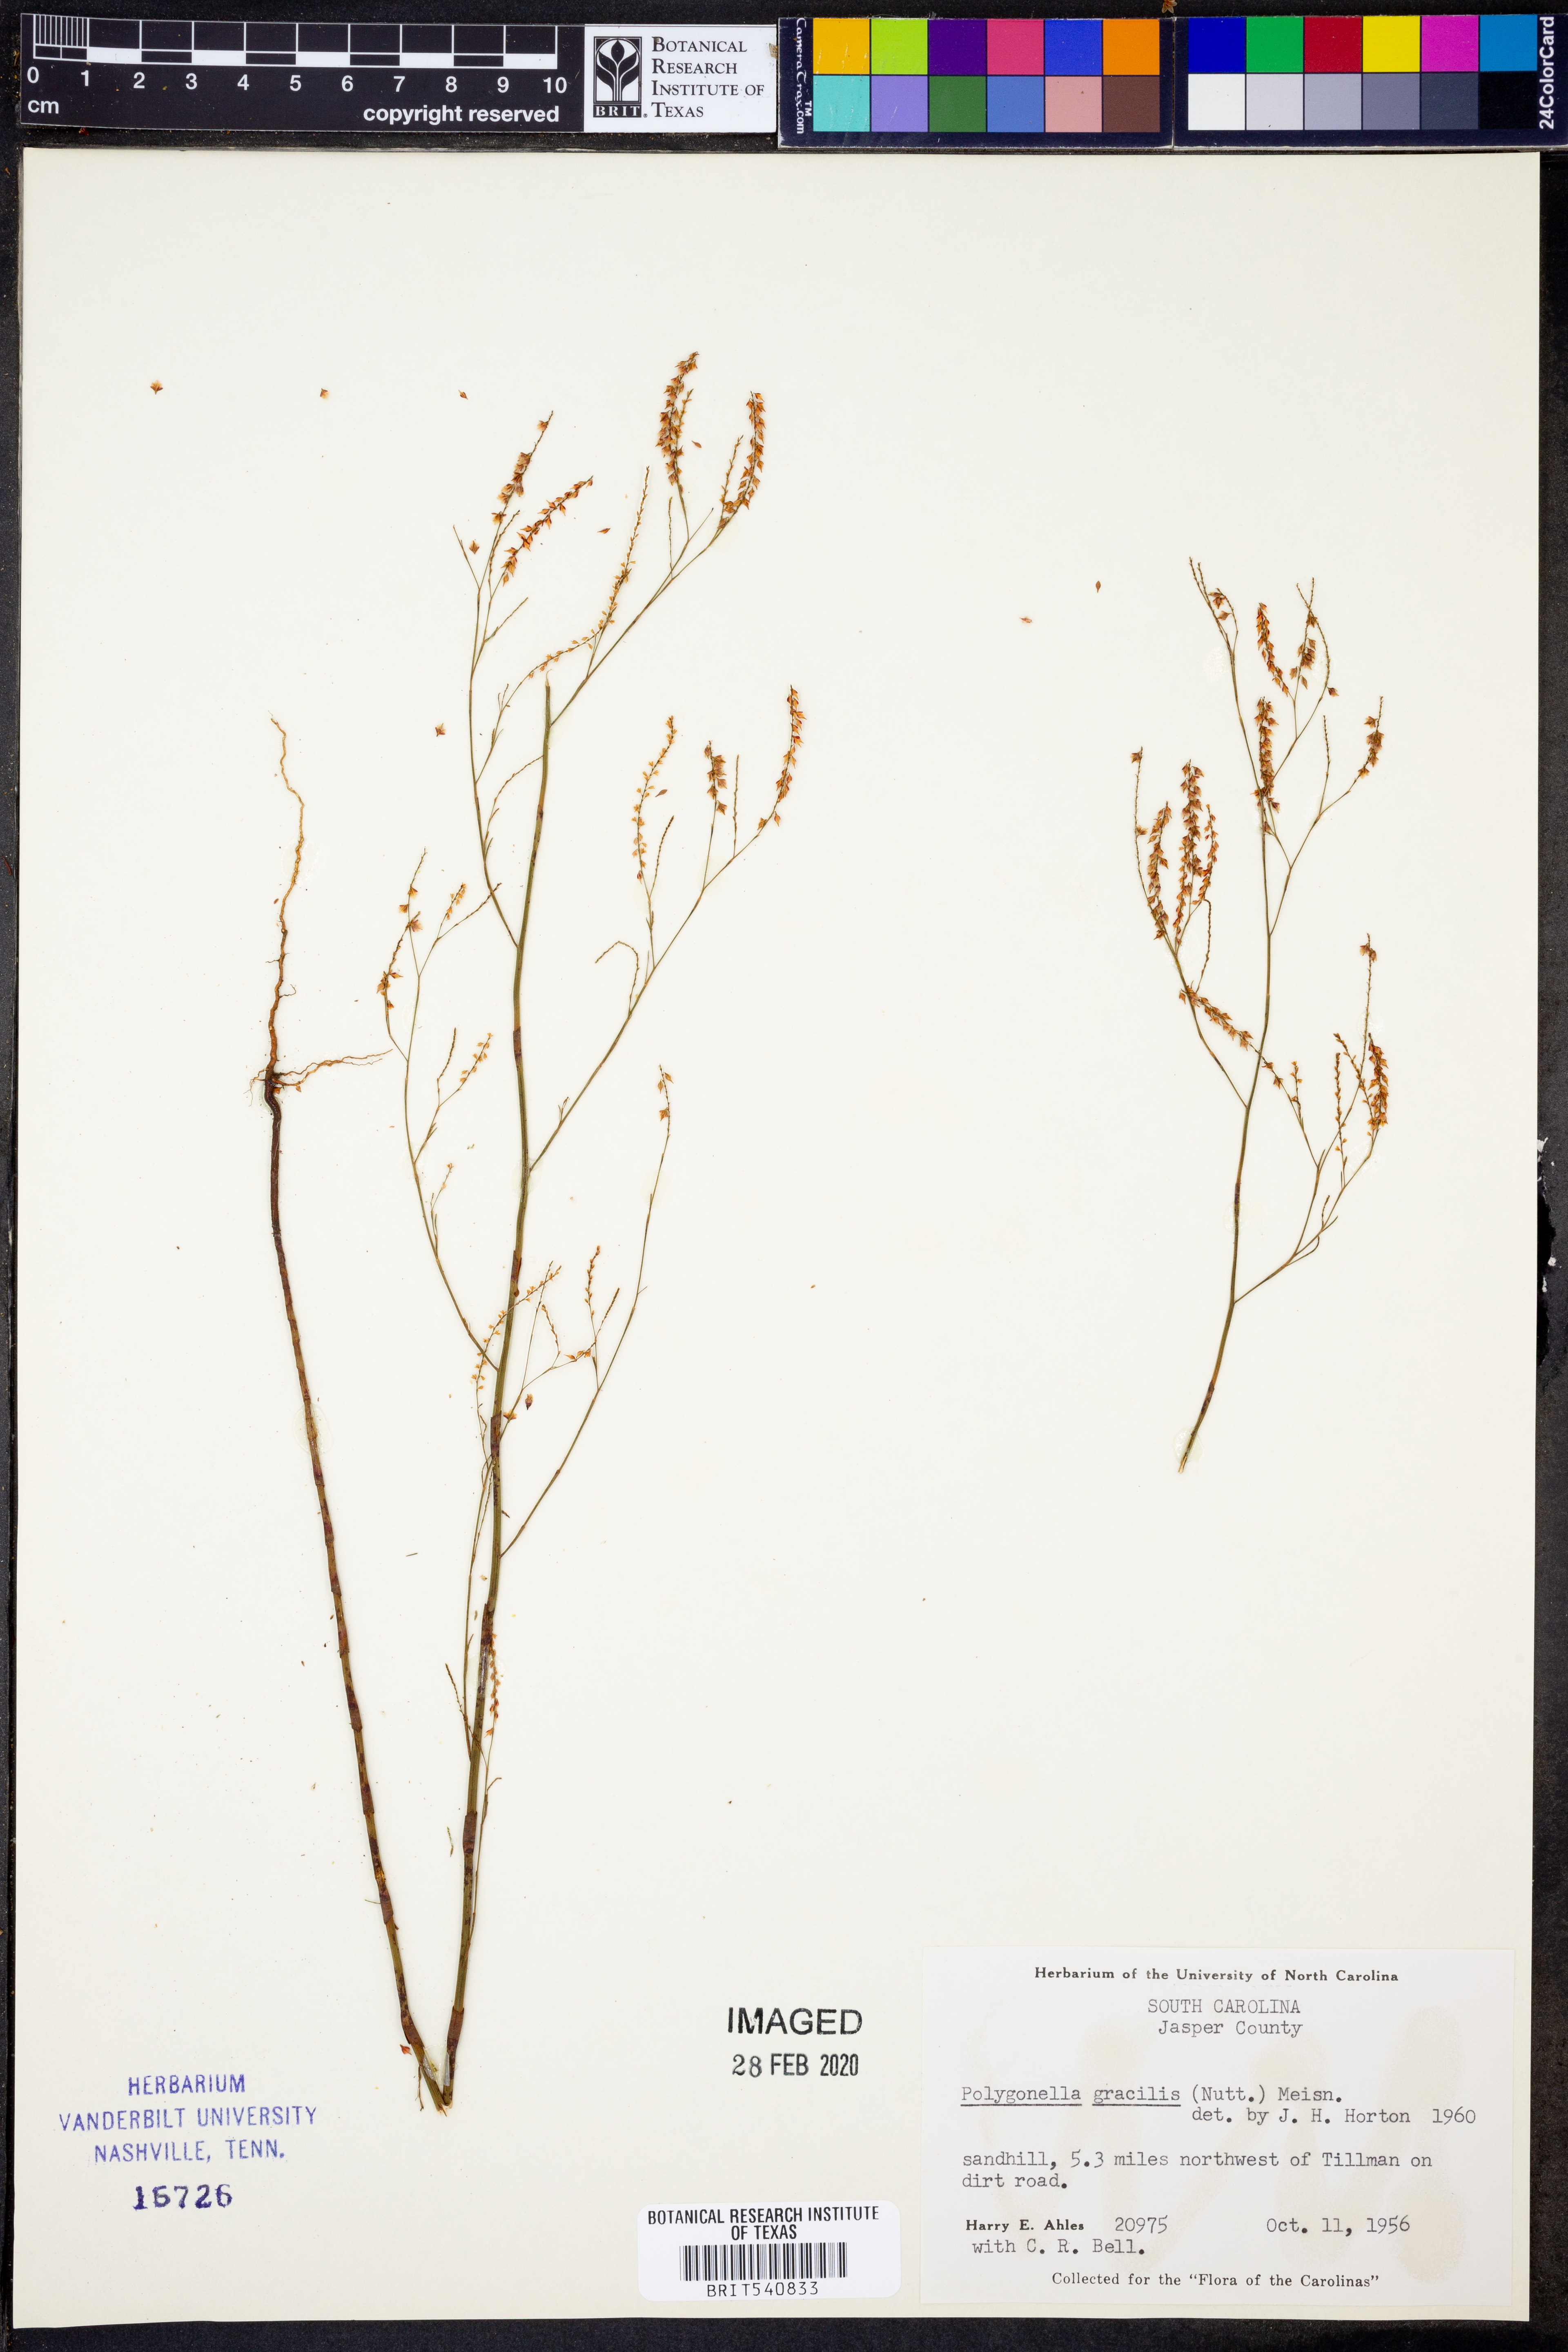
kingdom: Plantae
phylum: Tracheophyta
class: Magnoliopsida
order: Caryophyllales
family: Polygonaceae
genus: Polygonella
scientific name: Polygonella gracilis
